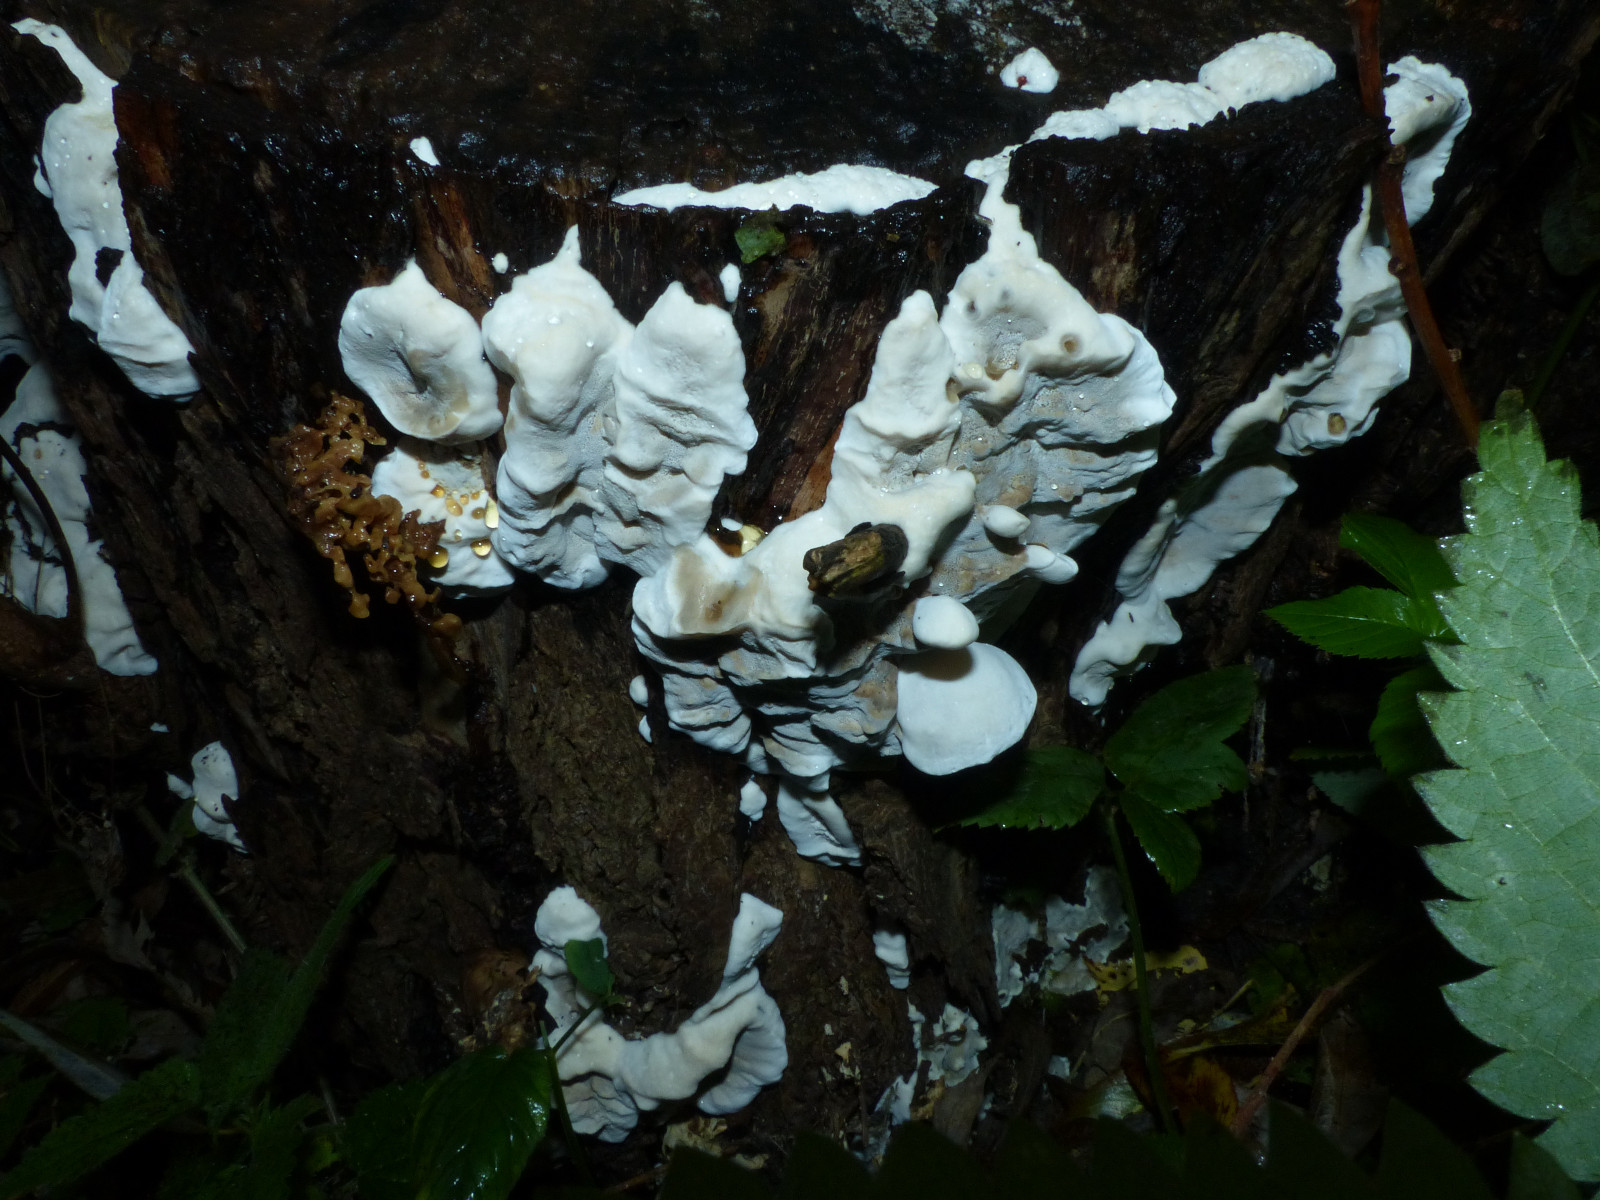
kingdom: Fungi
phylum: Basidiomycota
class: Agaricomycetes
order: Polyporales
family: Phanerochaetaceae
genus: Bjerkandera
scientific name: Bjerkandera fumosa
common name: grågul sodporesvamp
